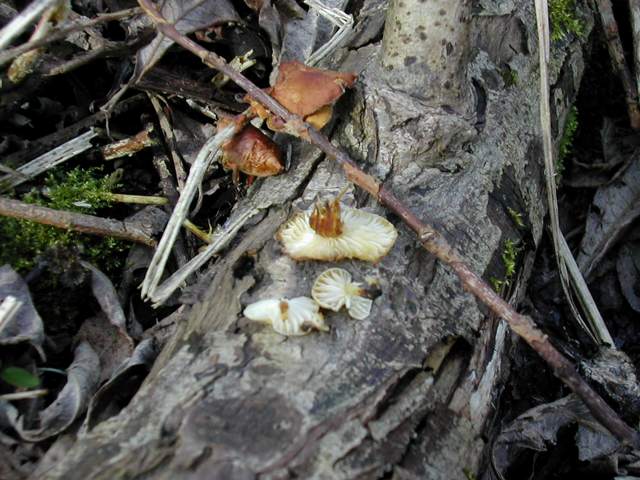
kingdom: Fungi
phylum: Basidiomycota
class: Agaricomycetes
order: Agaricales
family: Physalacriaceae
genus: Flammulina
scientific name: Flammulina elastica
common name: pile-fløjlsfod
